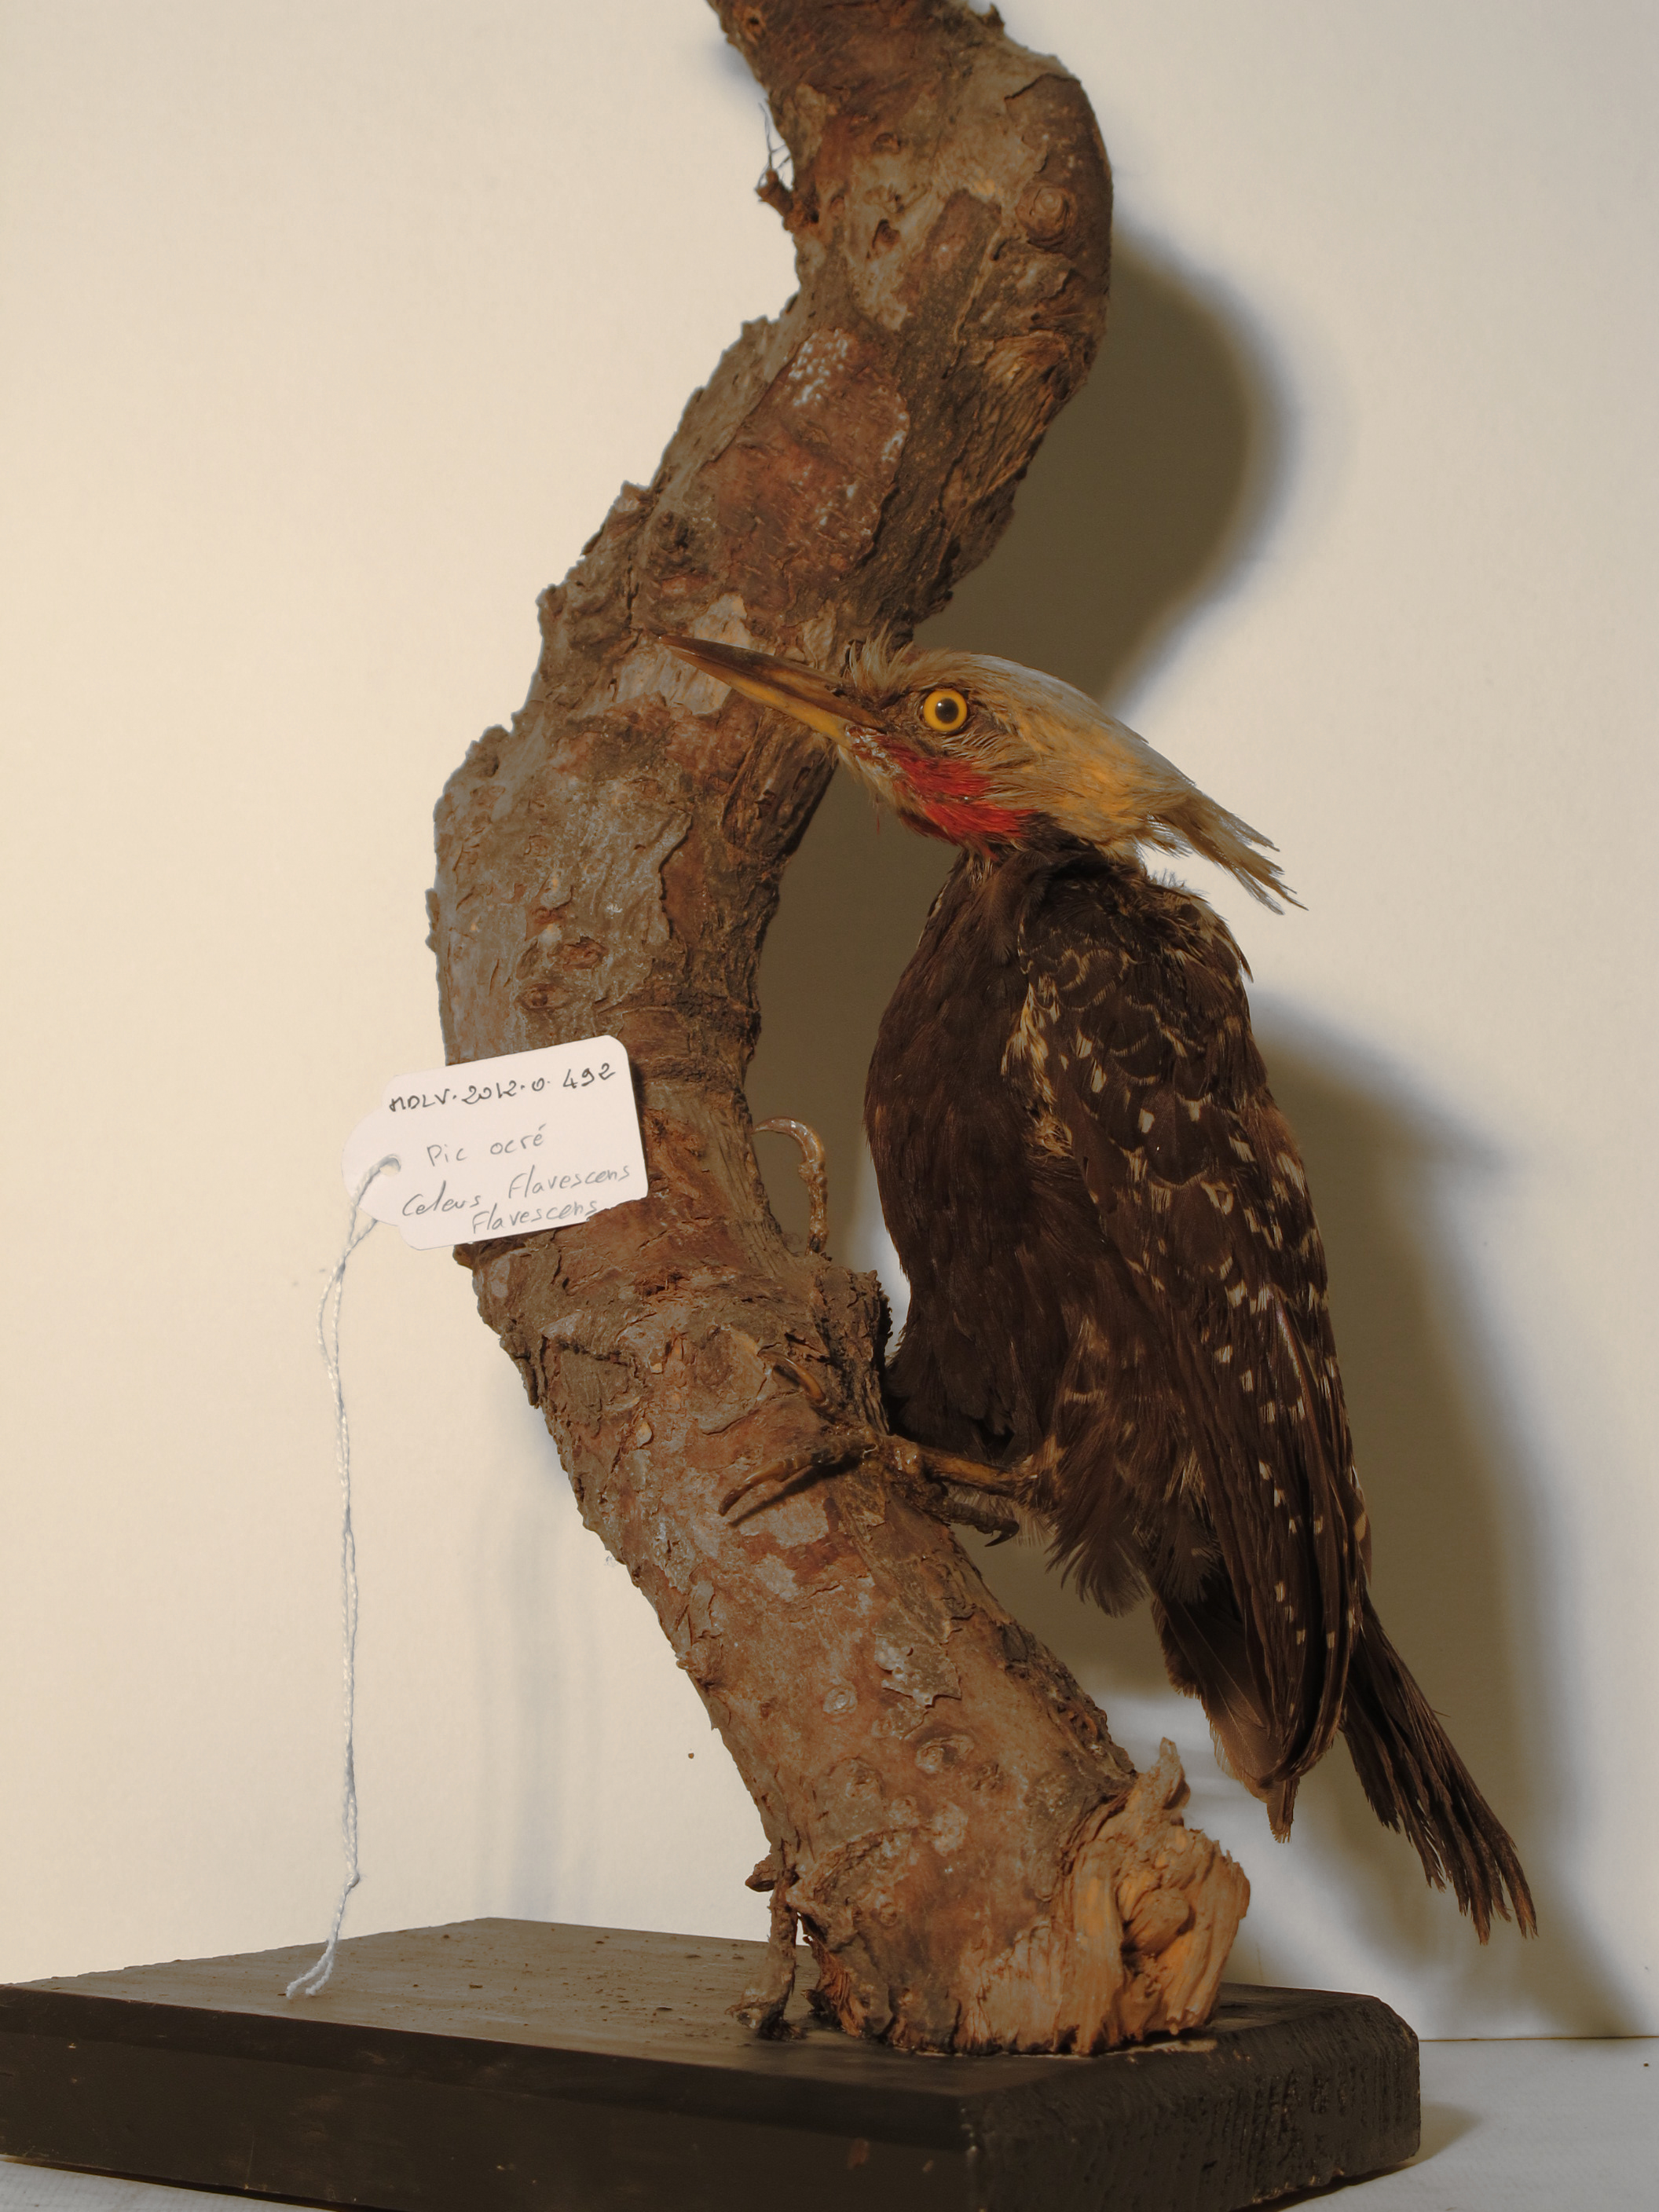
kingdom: Animalia
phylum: Chordata
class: Aves
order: Piciformes
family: Picidae
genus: Celeus
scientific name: Celeus flavescens
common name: Blond-crested Woodpecker
